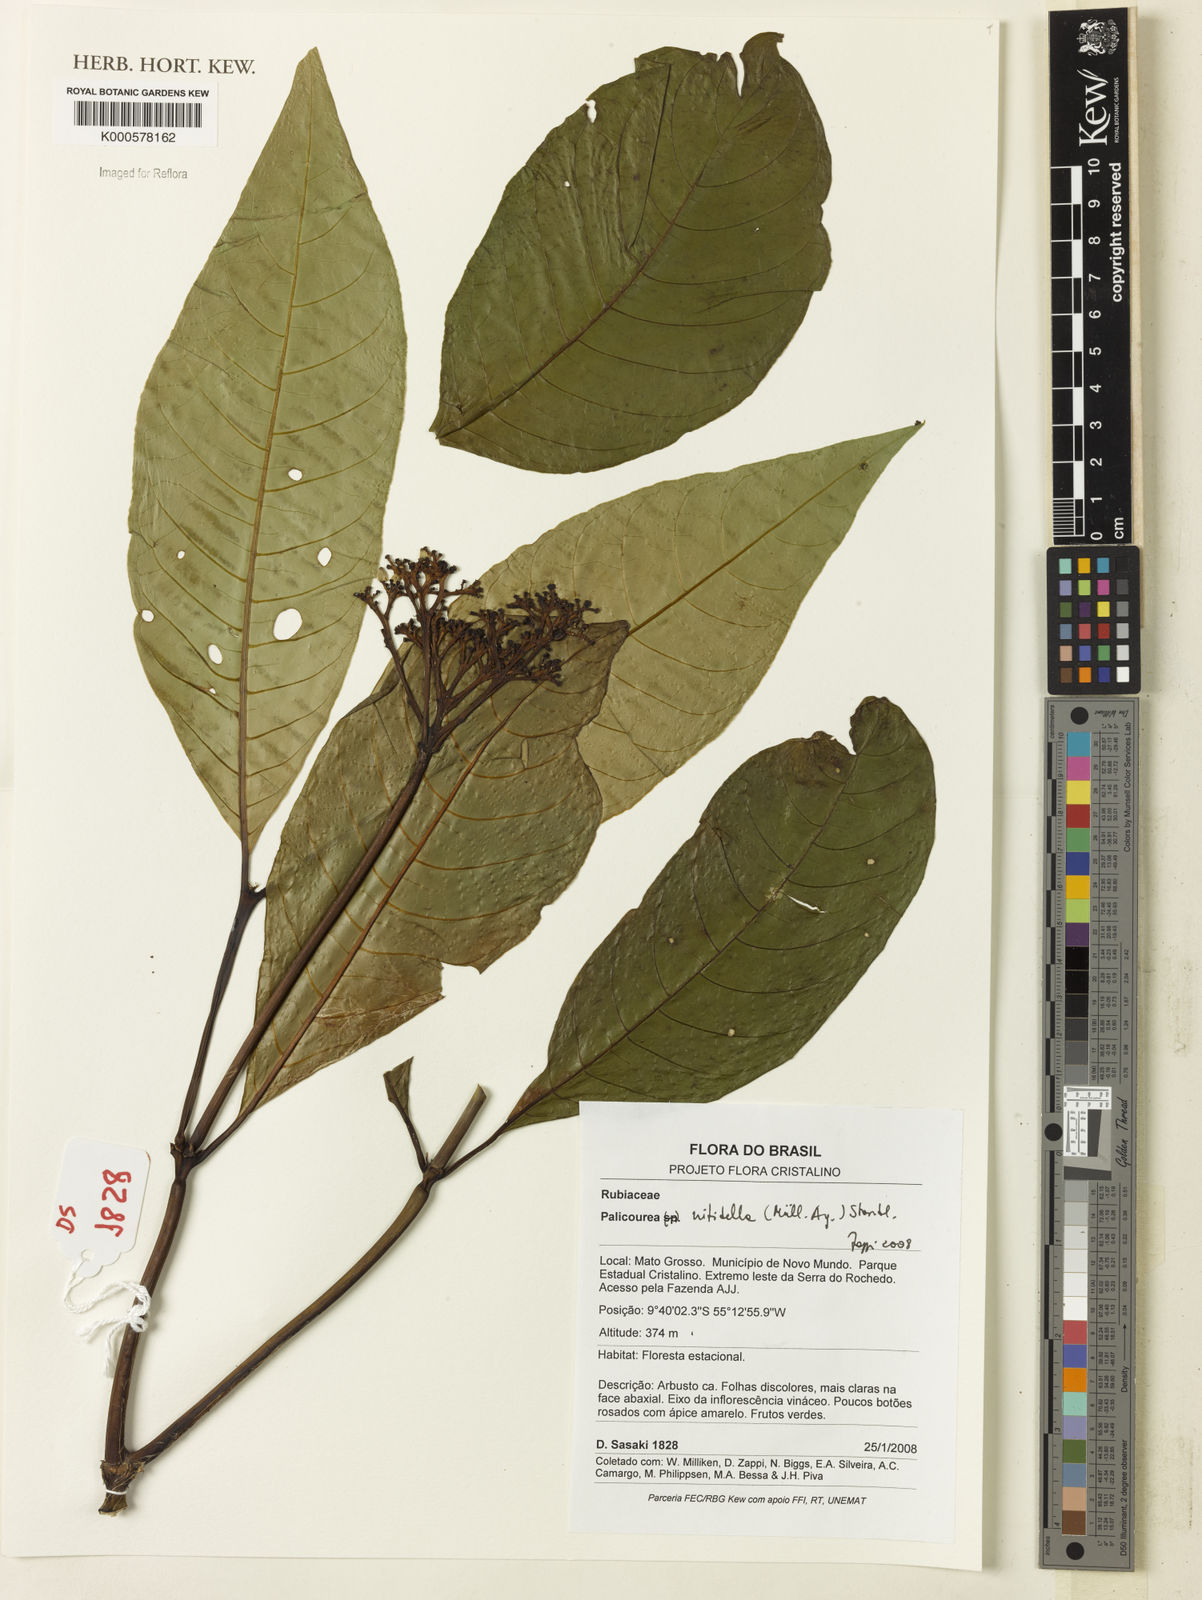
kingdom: Plantae
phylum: Tracheophyta
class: Magnoliopsida
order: Gentianales
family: Rubiaceae
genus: Palicourea
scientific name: Palicourea
